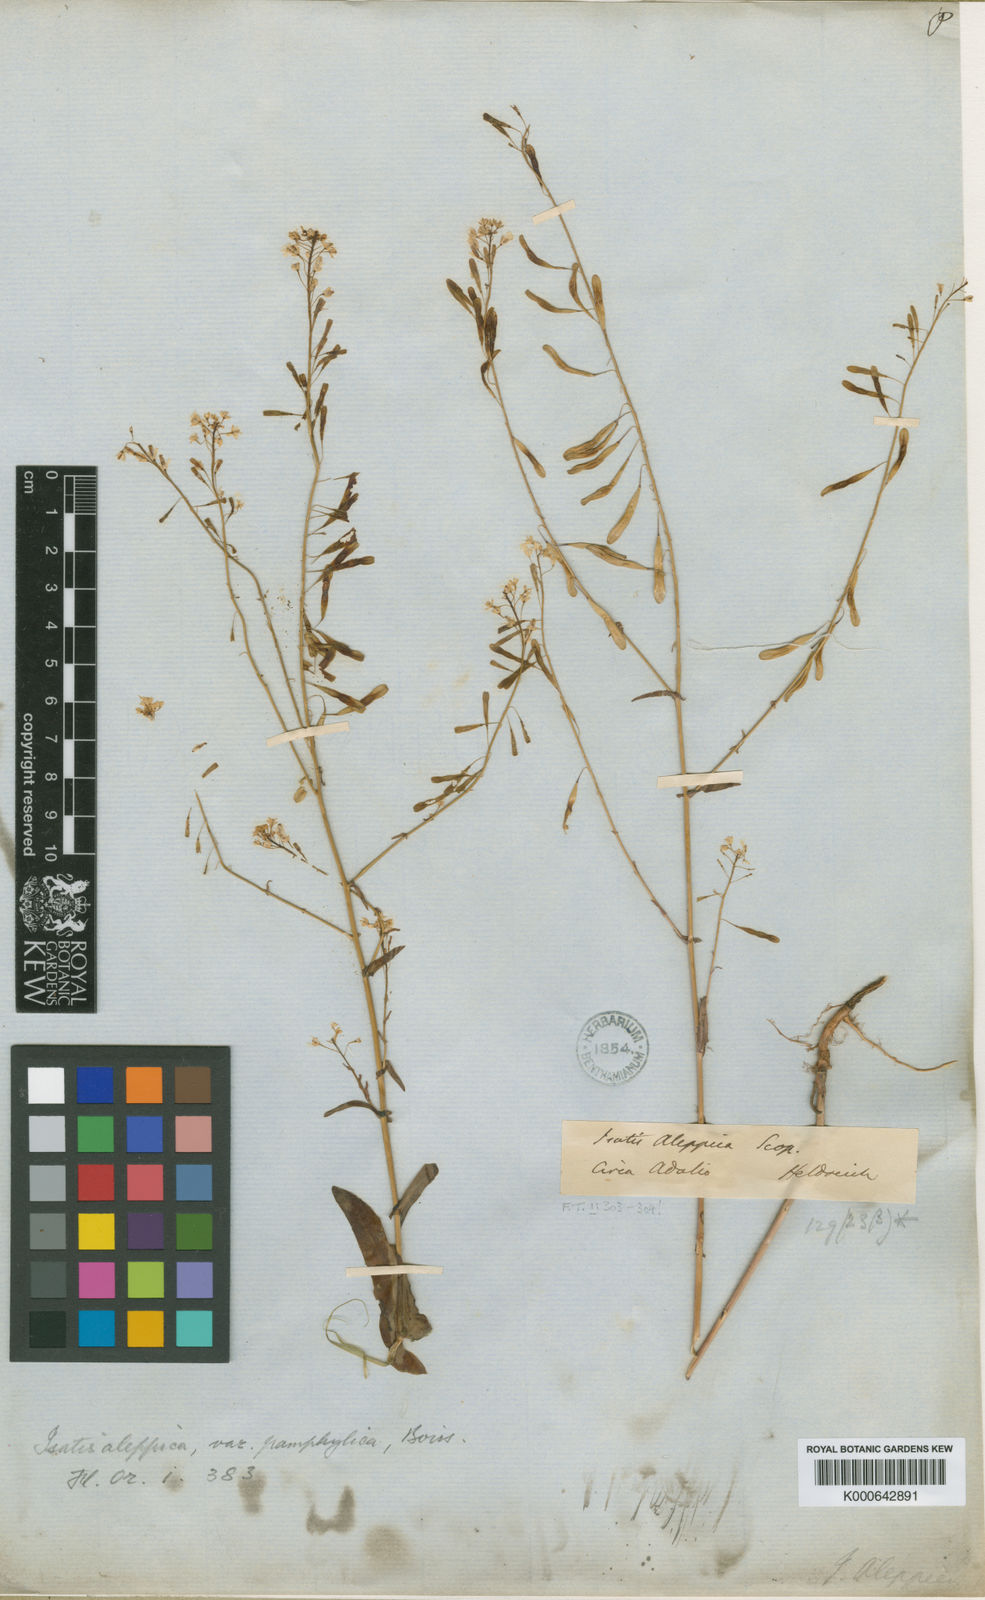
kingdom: Plantae
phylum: Tracheophyta
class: Magnoliopsida
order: Brassicales
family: Brassicaceae
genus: Isatis
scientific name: Isatis lusitanica
